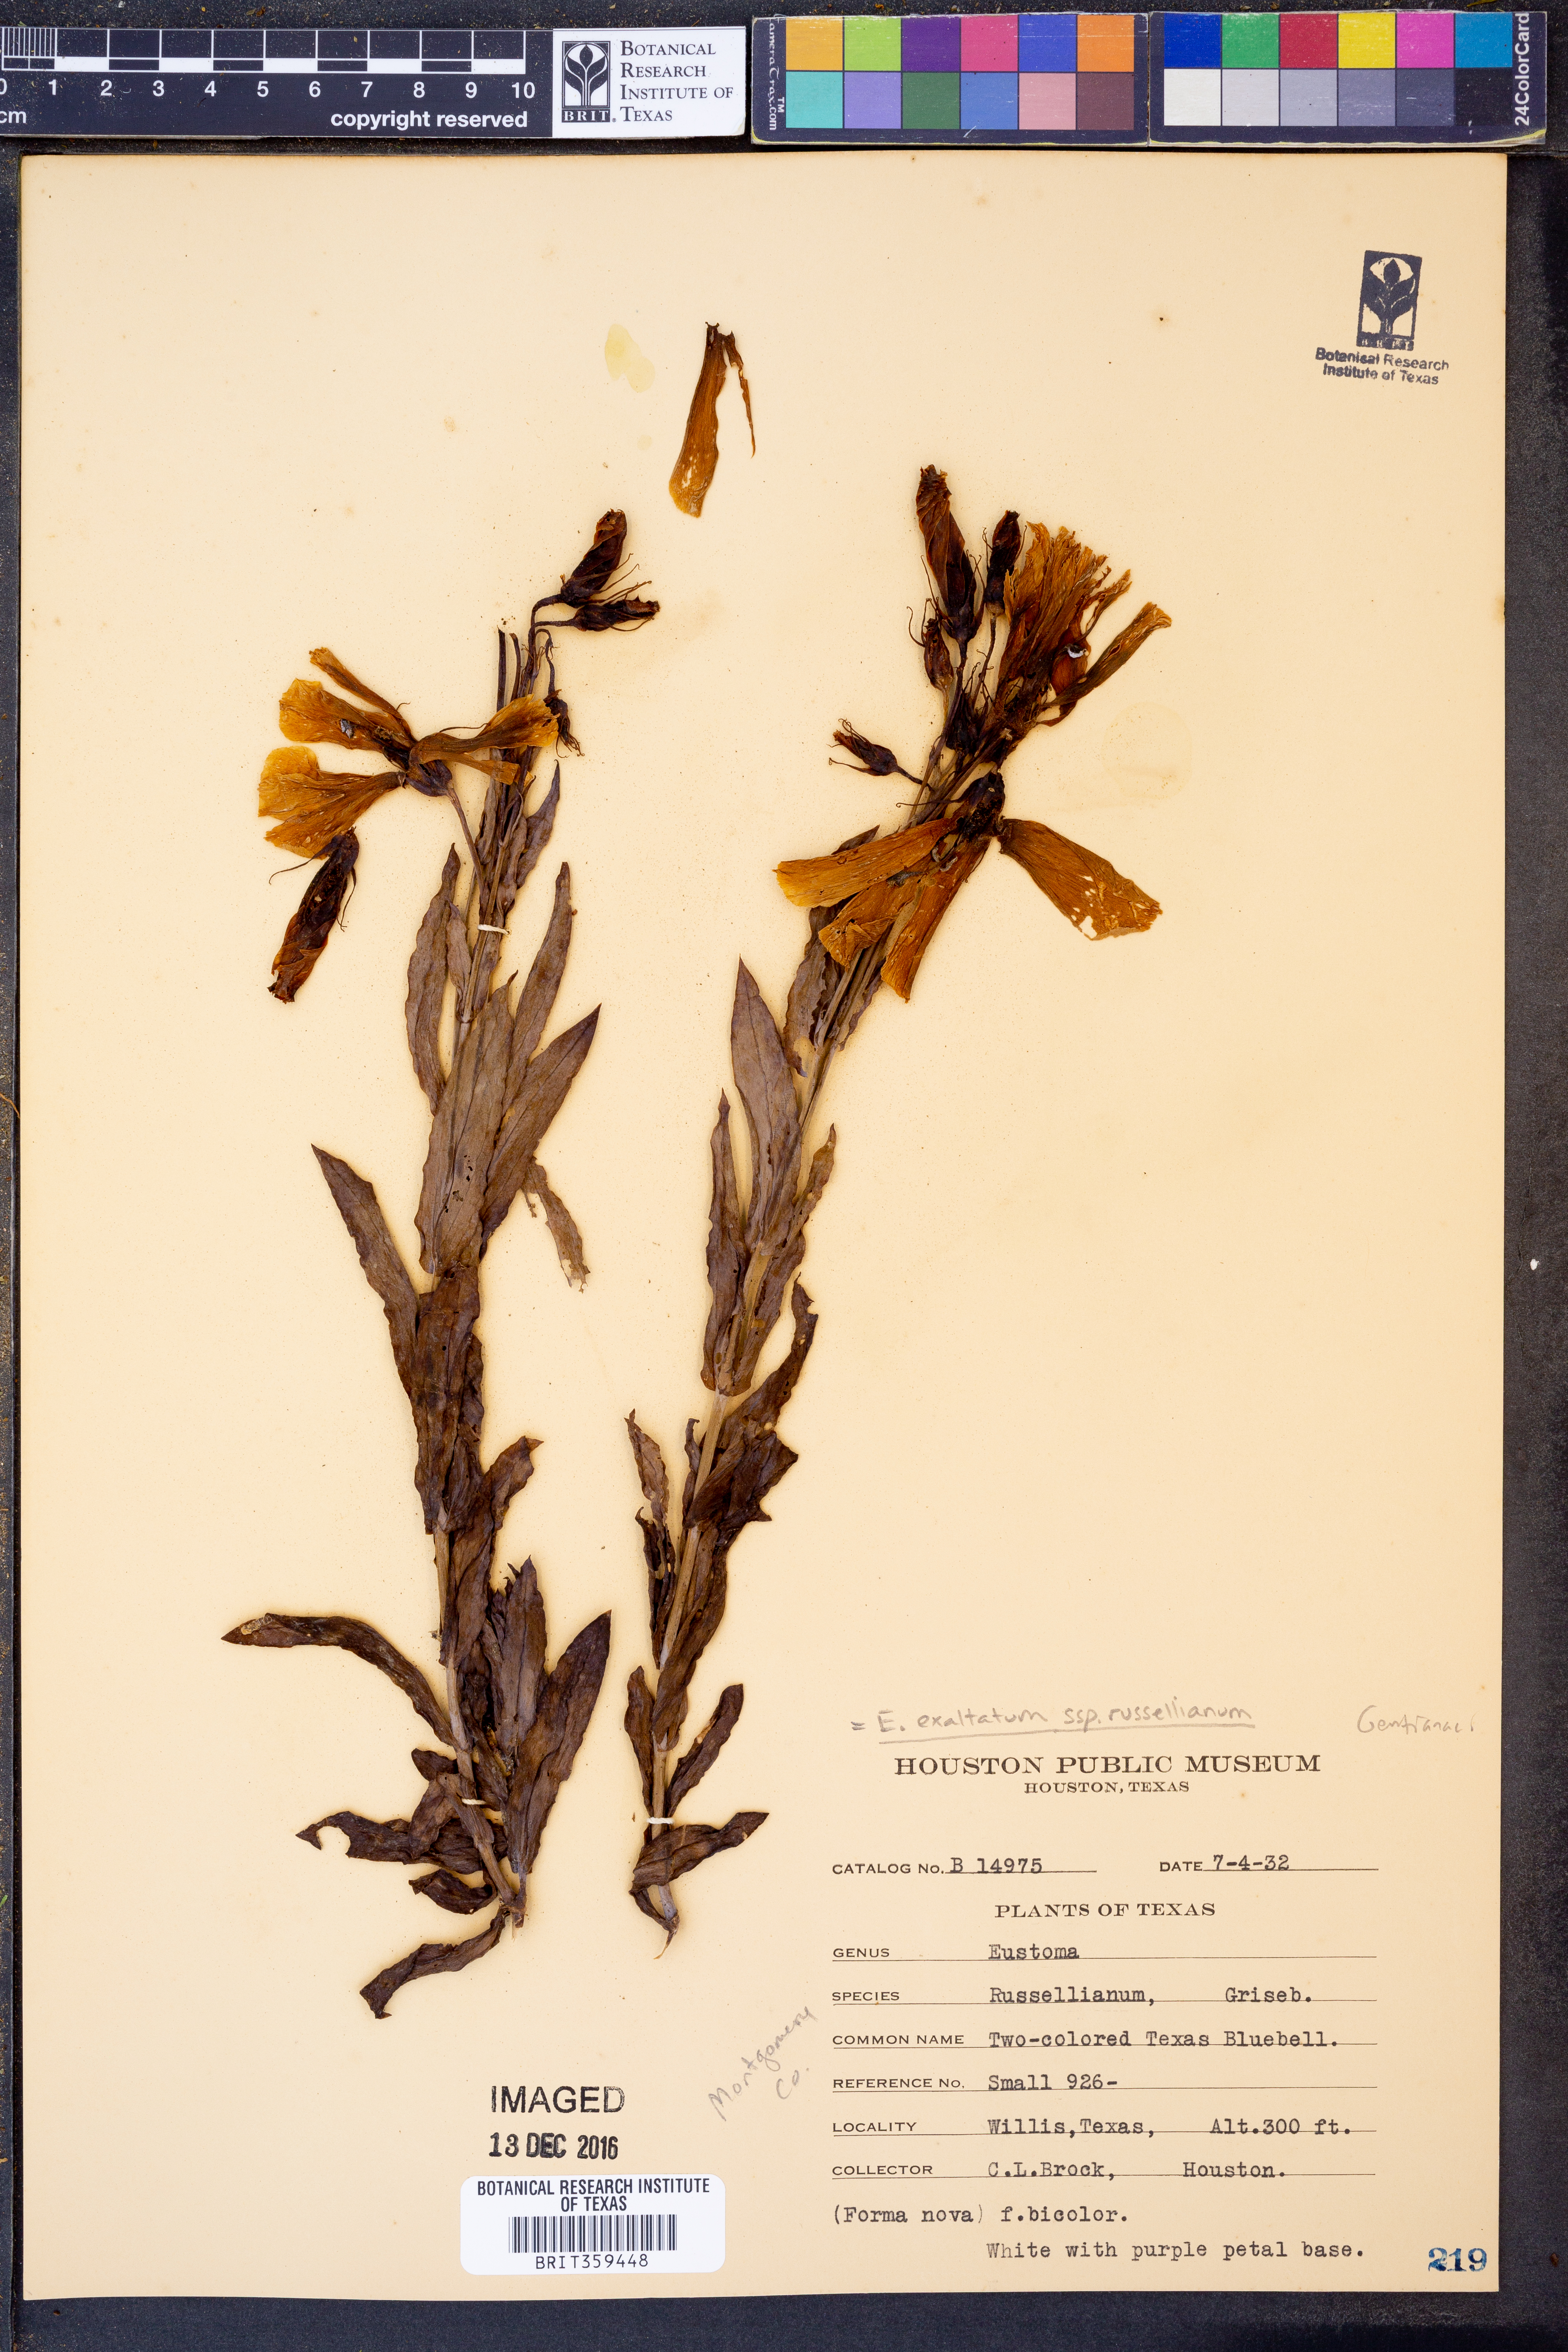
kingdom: Plantae
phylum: Tracheophyta
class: Magnoliopsida
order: Gentianales
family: Gentianaceae
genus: Eustoma
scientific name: Eustoma russellianum
